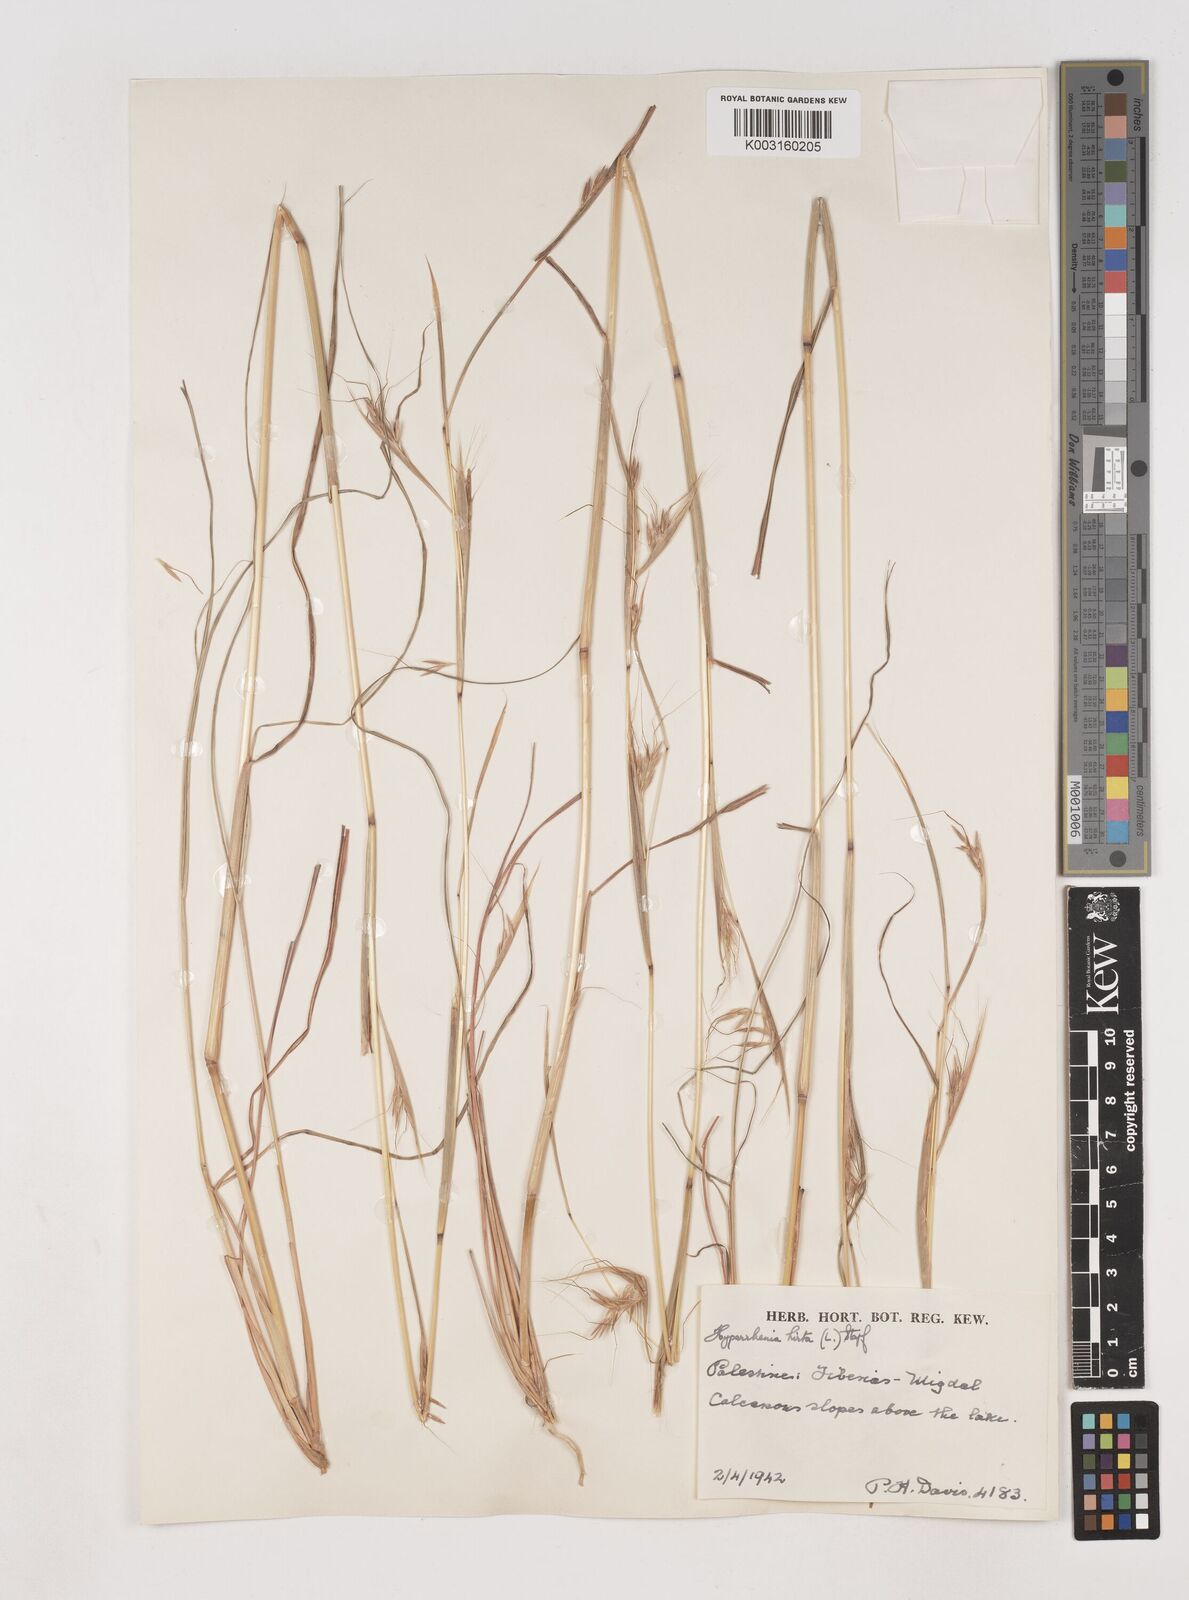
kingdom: Plantae
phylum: Tracheophyta
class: Liliopsida
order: Poales
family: Poaceae
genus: Hyparrhenia
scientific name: Hyparrhenia hirta
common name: Thatching grass
